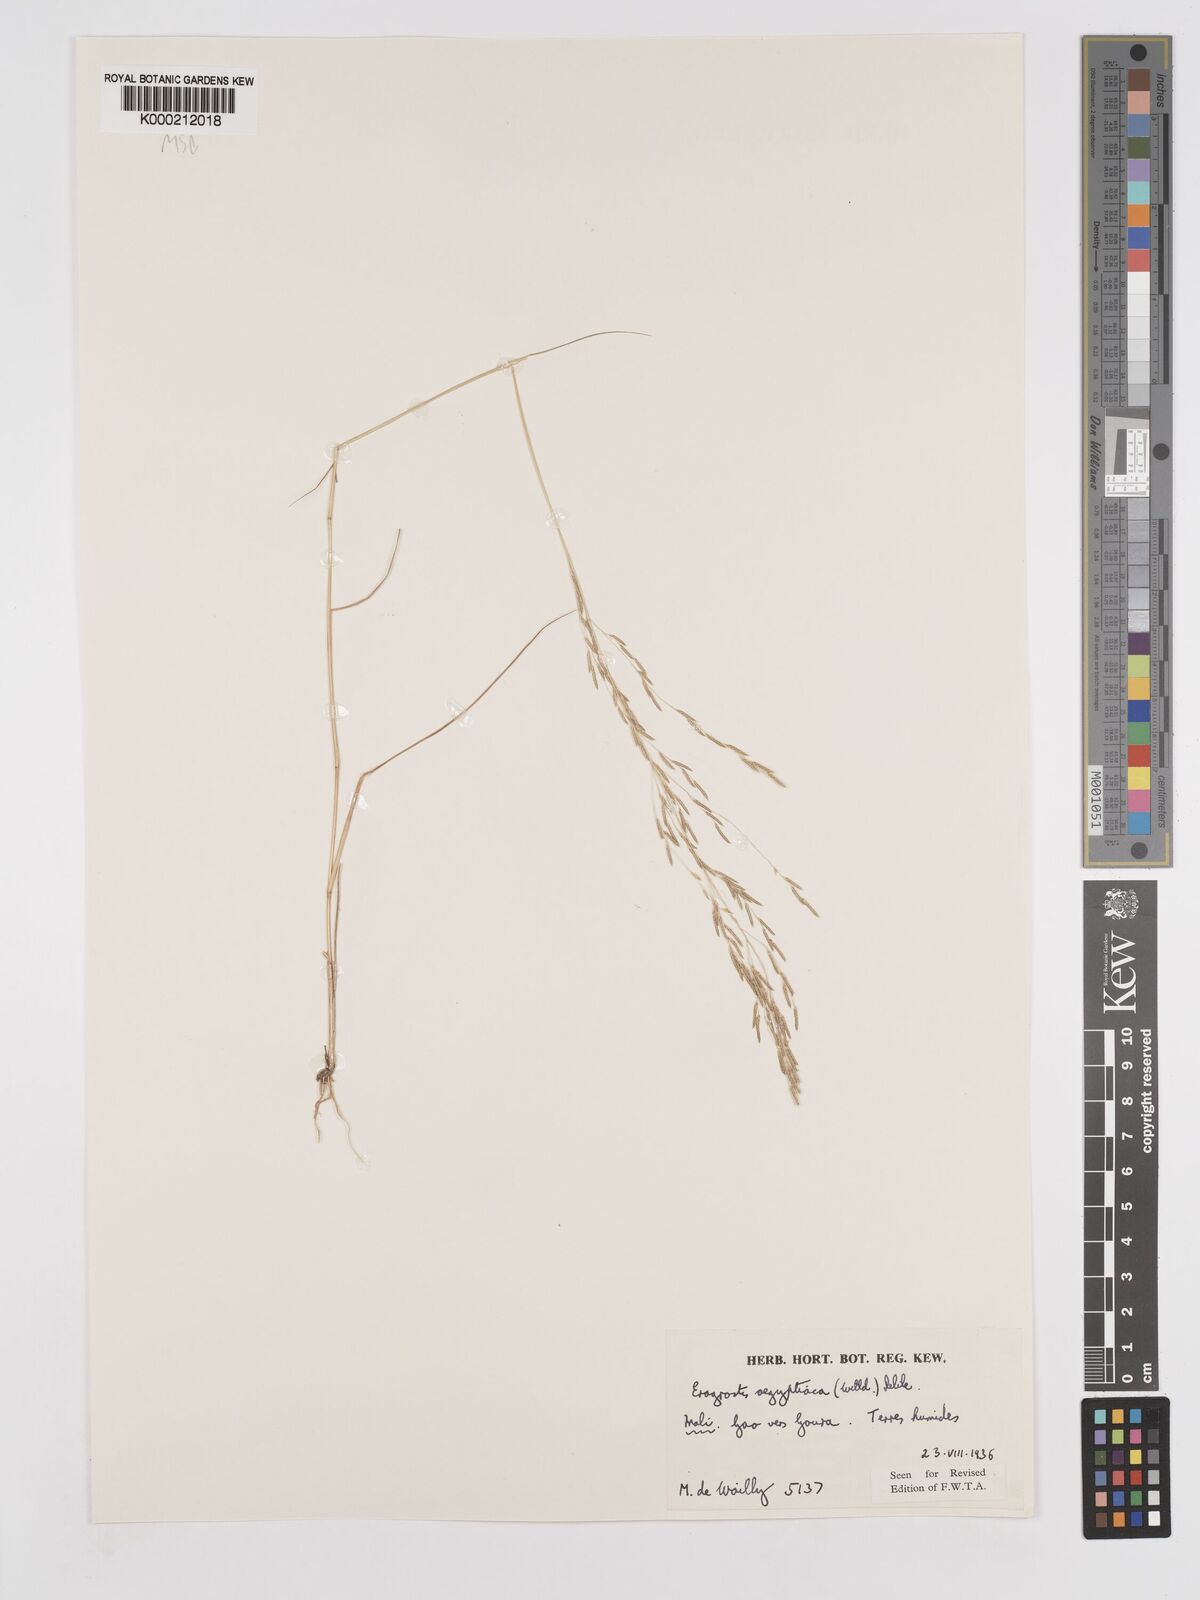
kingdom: Plantae
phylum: Tracheophyta
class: Liliopsida
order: Poales
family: Poaceae
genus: Eragrostis
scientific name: Eragrostis aegyptiaca
